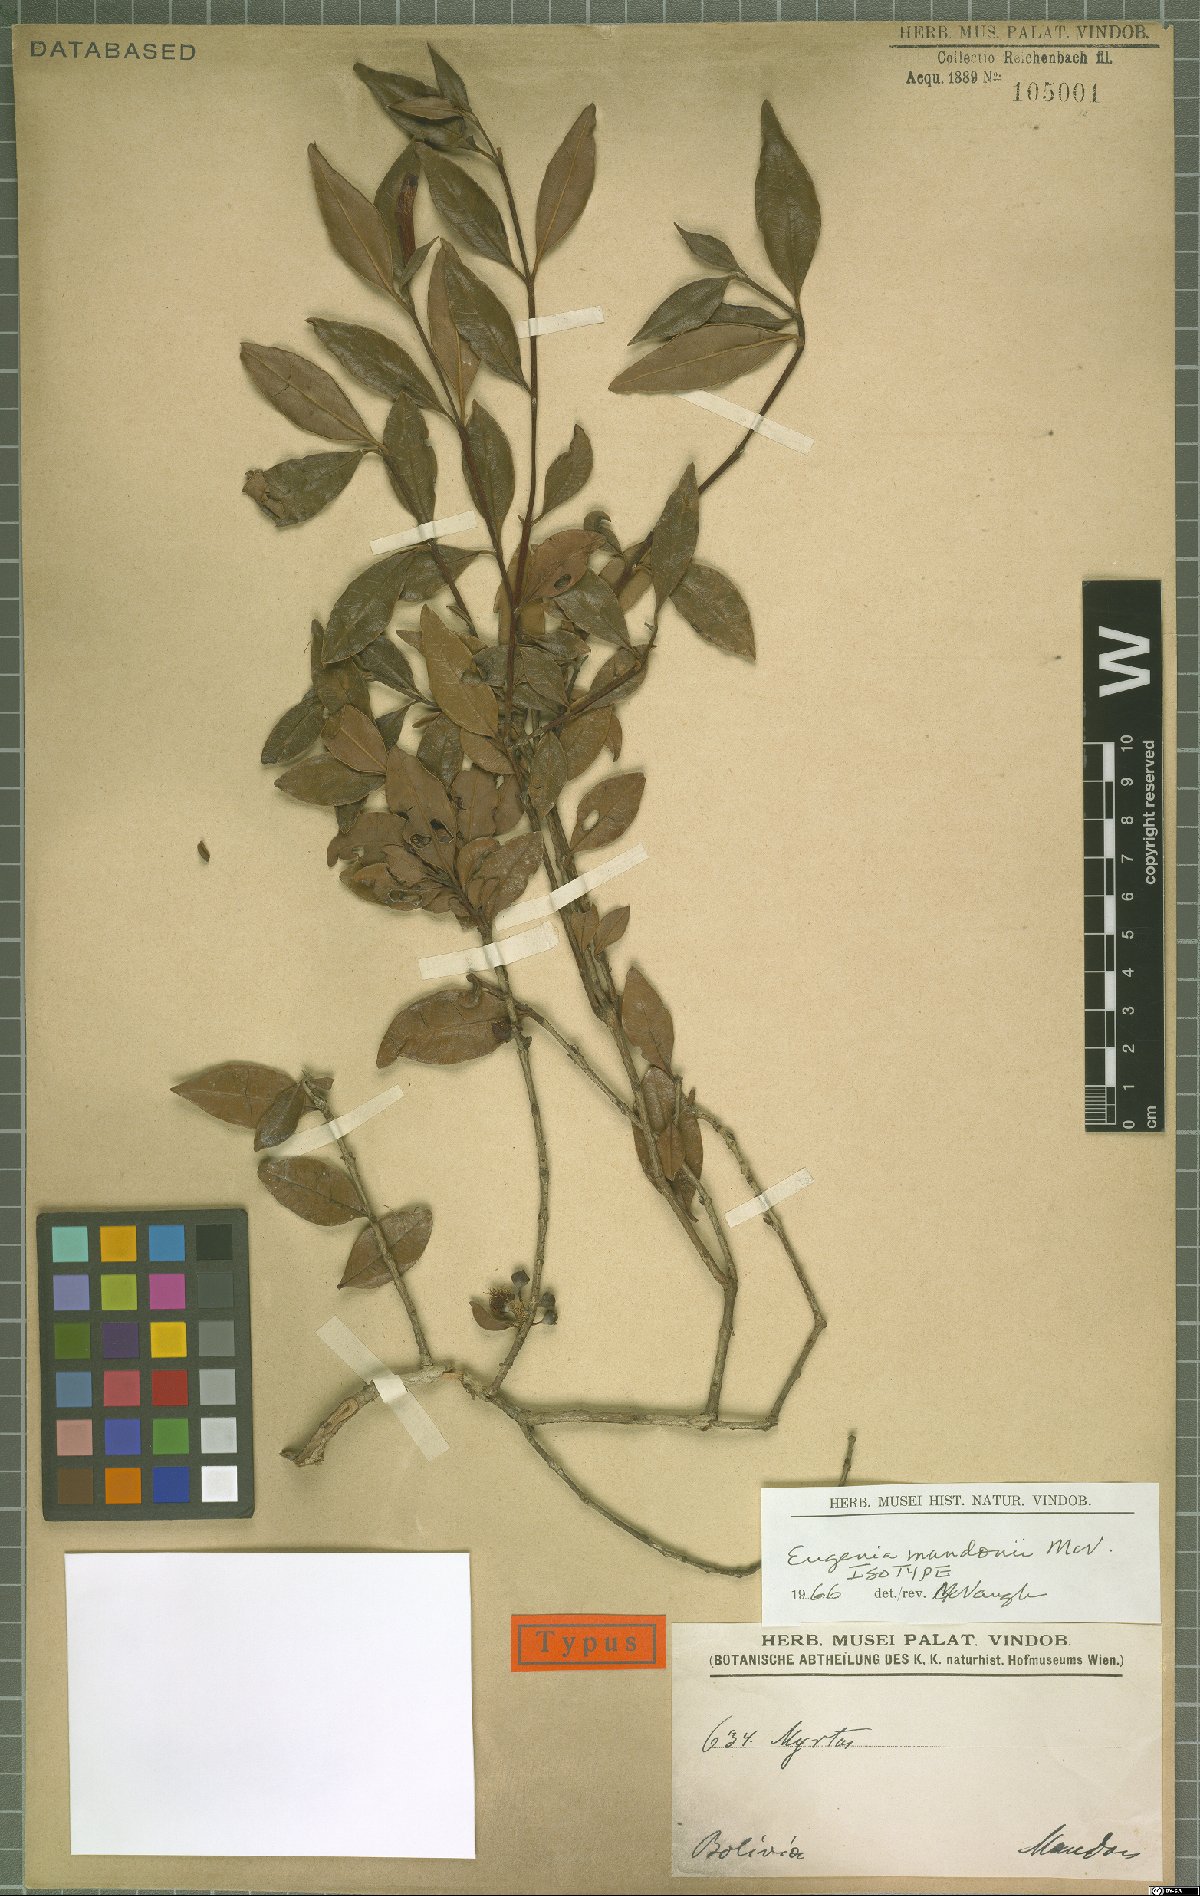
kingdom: Plantae
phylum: Tracheophyta
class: Magnoliopsida
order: Myrtales
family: Myrtaceae
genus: Eugenia
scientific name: Eugenia mandonii
